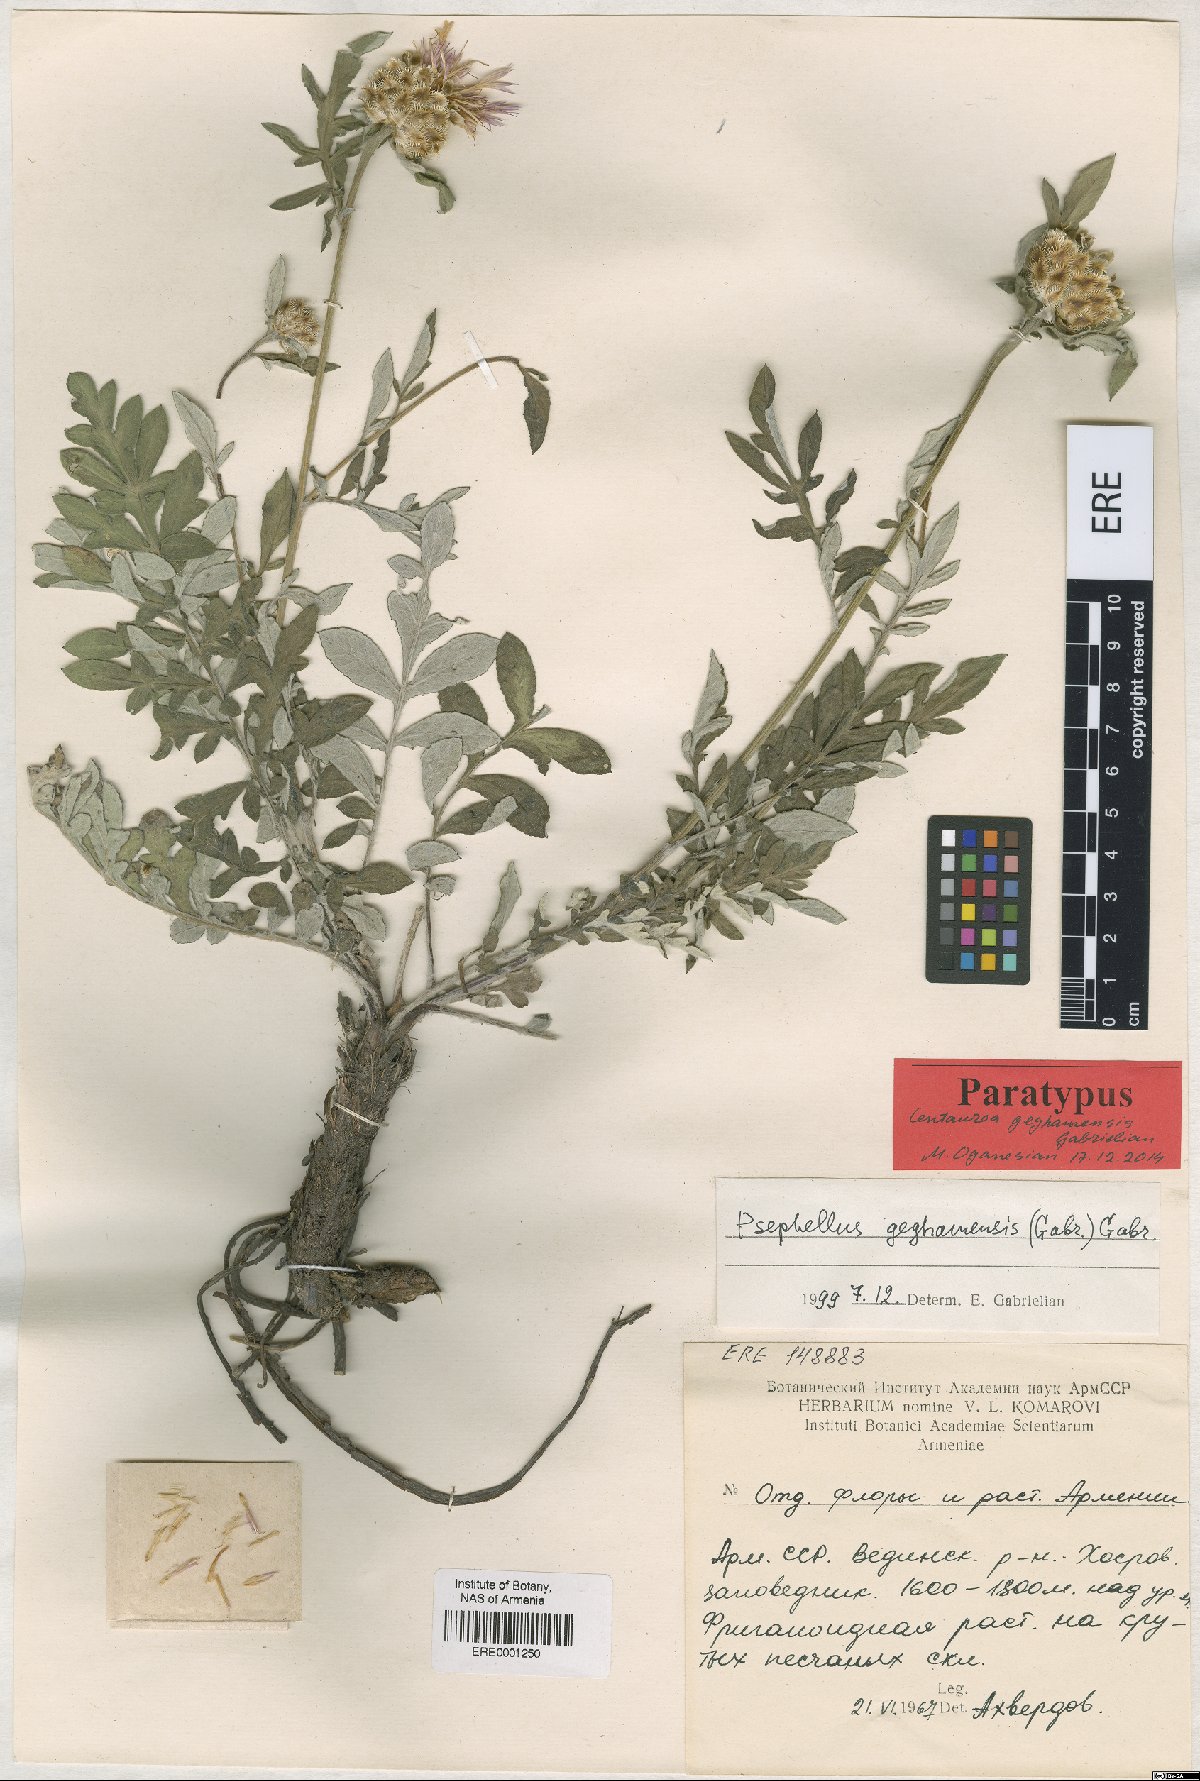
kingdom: Plantae
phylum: Tracheophyta
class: Magnoliopsida
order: Asterales
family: Asteraceae
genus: Psephellus
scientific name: Psephellus geghamensis
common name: Geghamian cornflower
